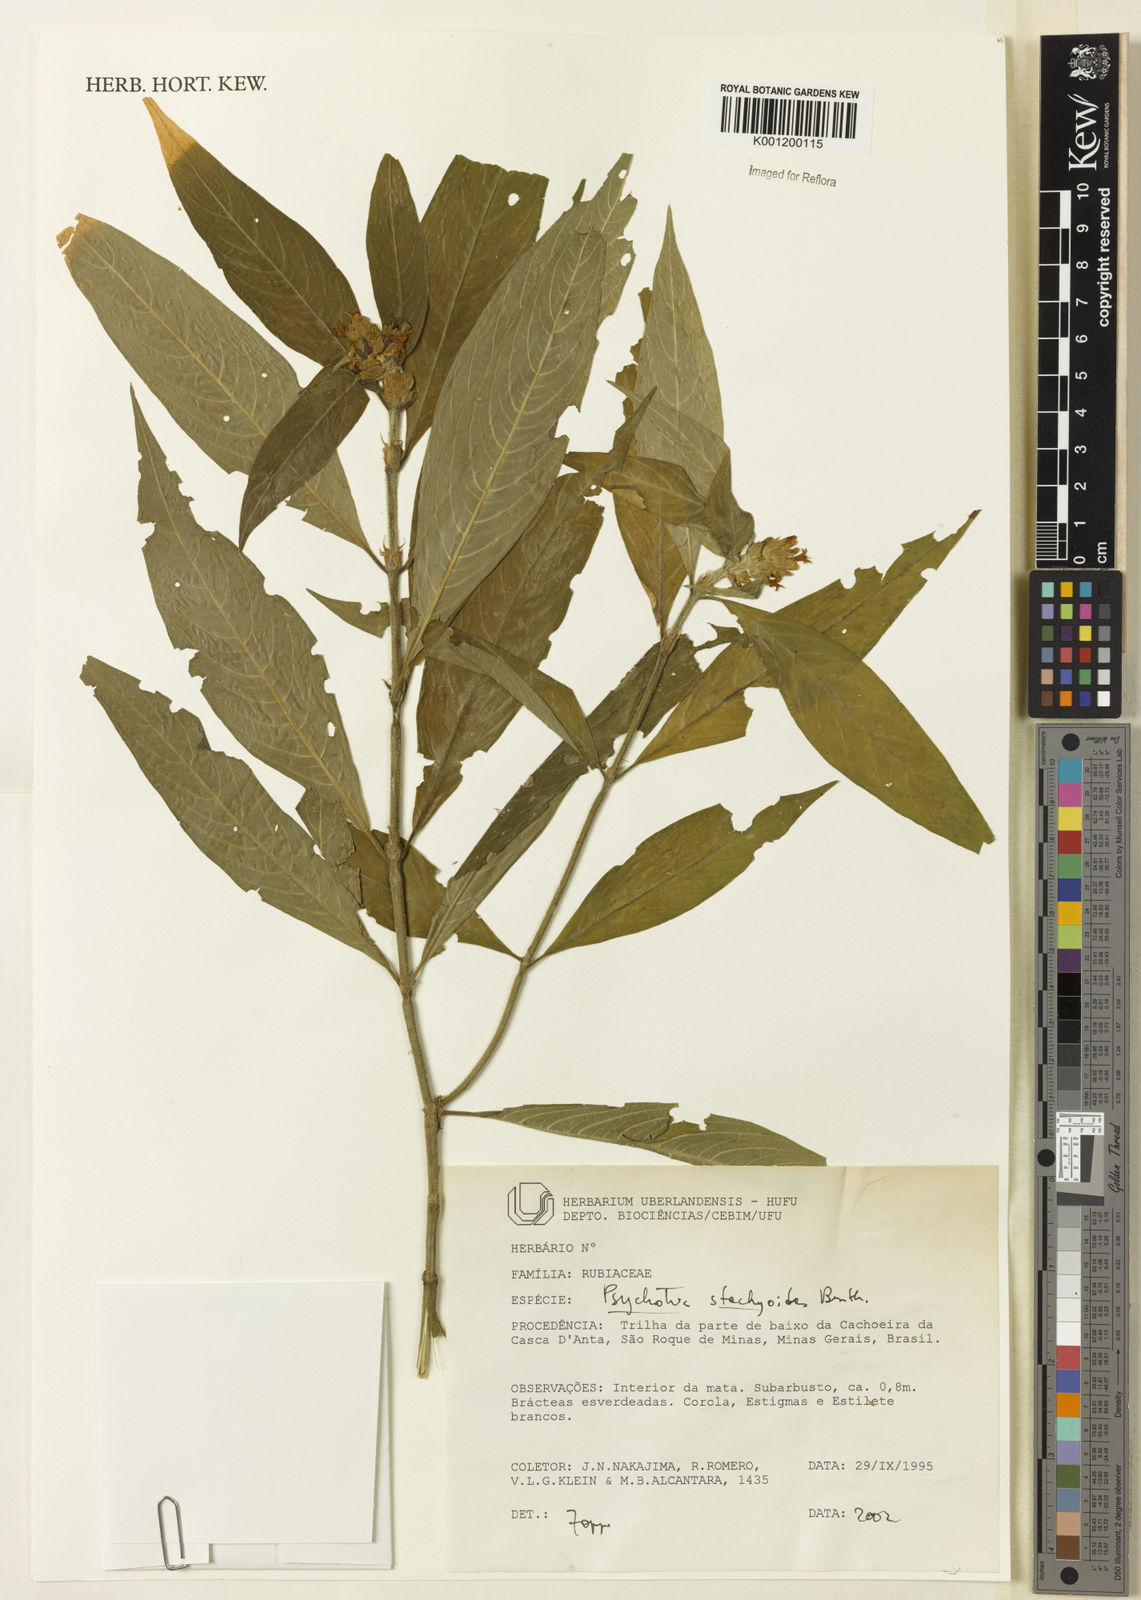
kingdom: Plantae
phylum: Tracheophyta
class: Magnoliopsida
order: Gentianales
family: Rubiaceae
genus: Psychotria
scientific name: Psychotria stachyoides
